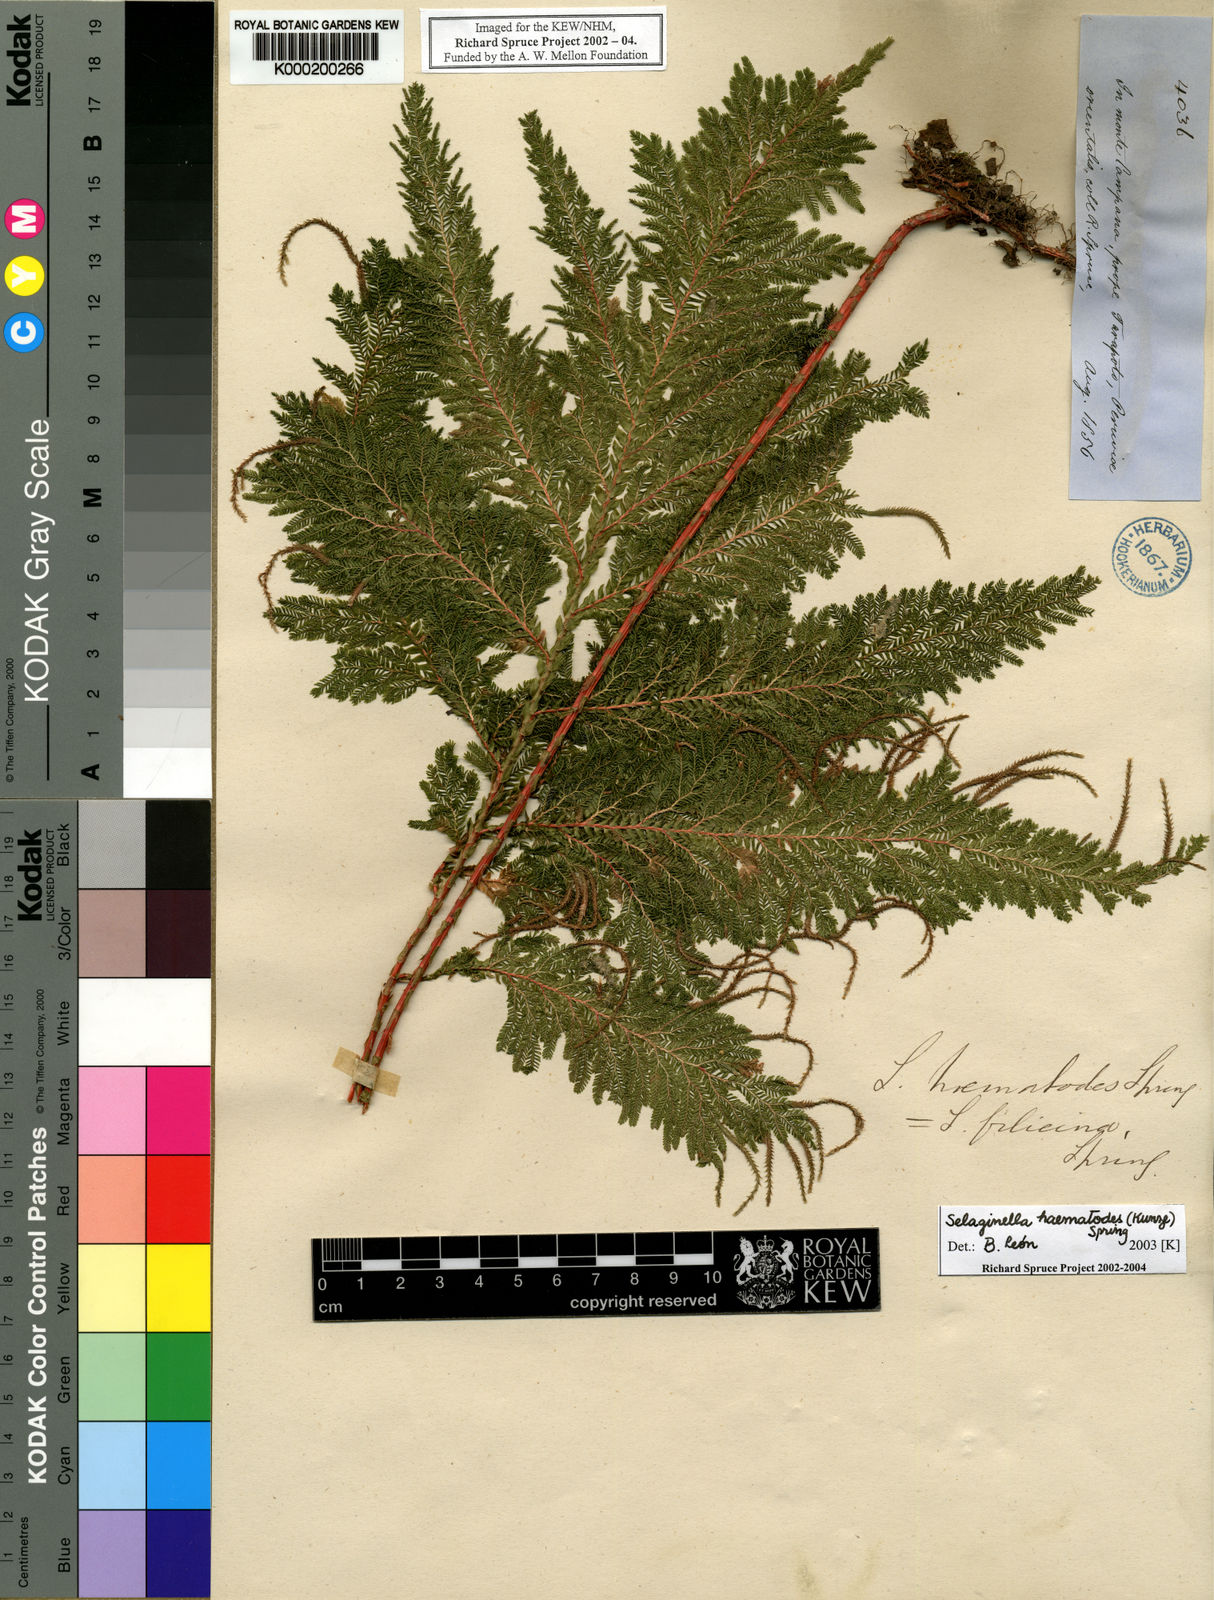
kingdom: Plantae
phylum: Tracheophyta
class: Lycopodiopsida
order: Selaginellales
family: Selaginellaceae
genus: Selaginella
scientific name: Selaginella haematodes
